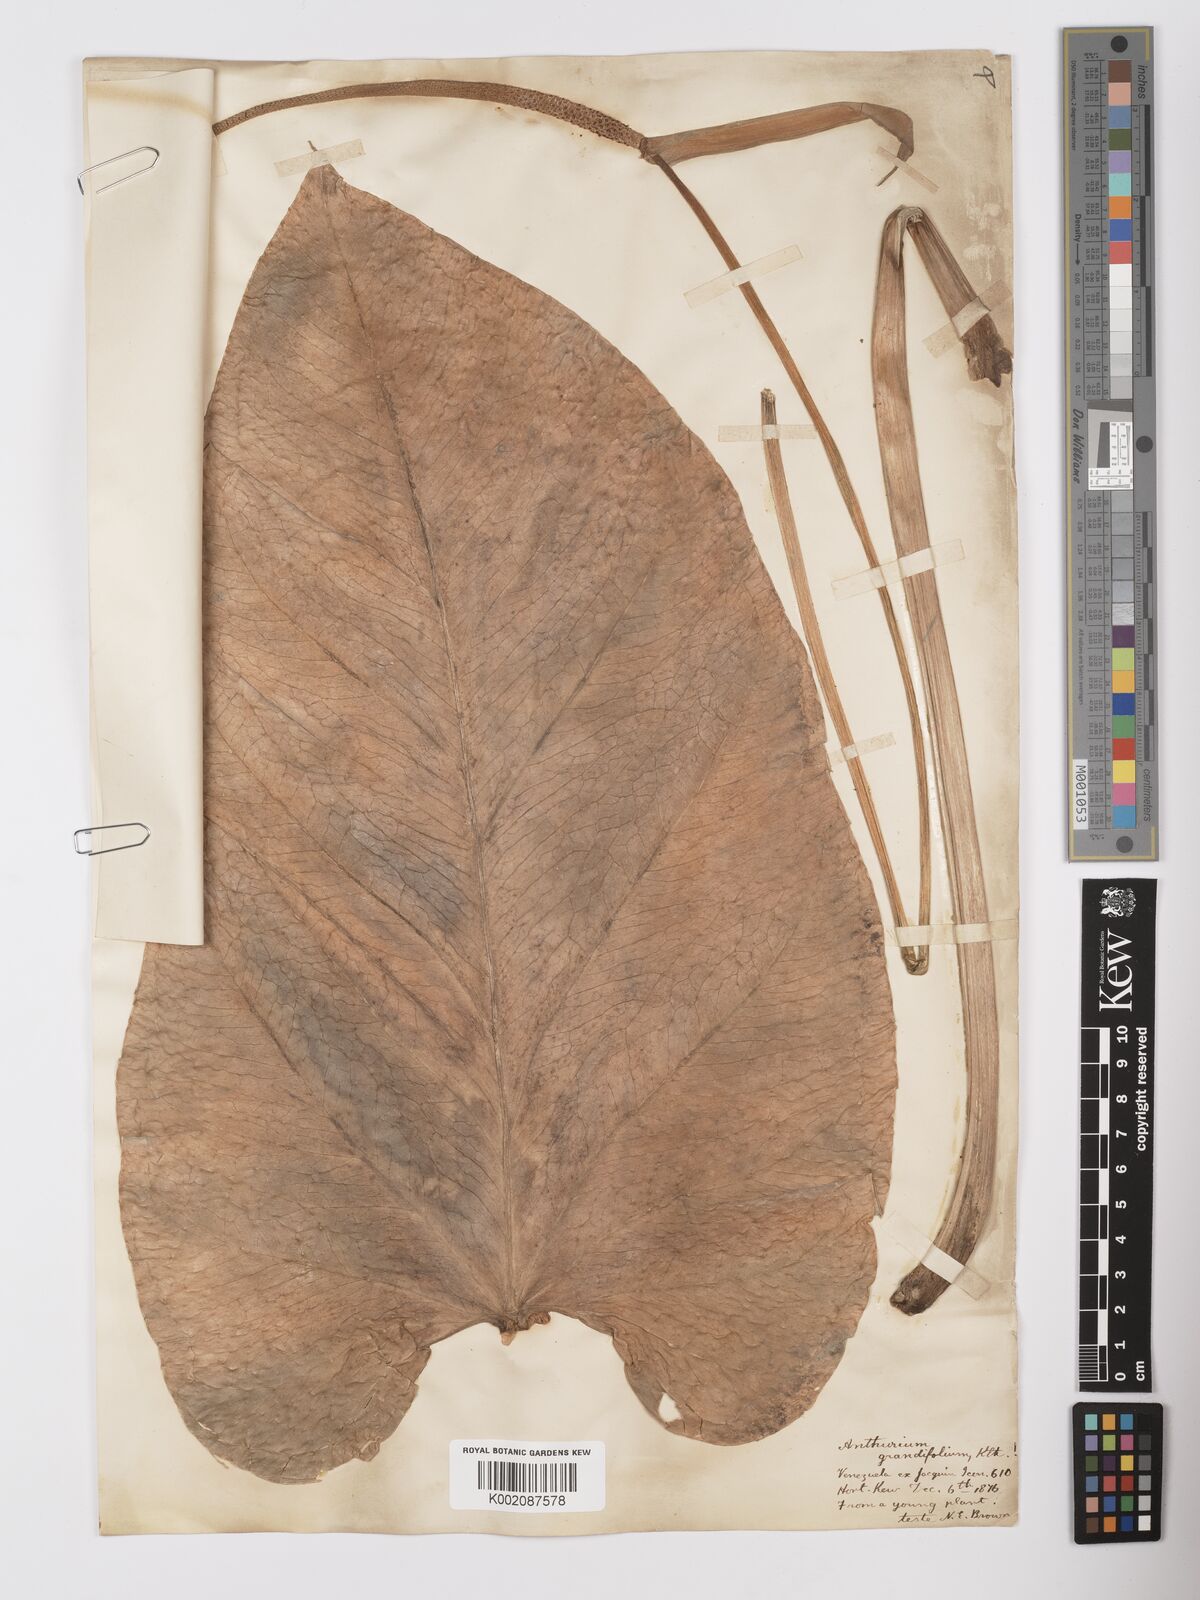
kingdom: Plantae
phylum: Tracheophyta
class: Liliopsida
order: Alismatales
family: Araceae
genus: Anthurium
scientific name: Anthurium grandifolium
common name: Monkey tail
